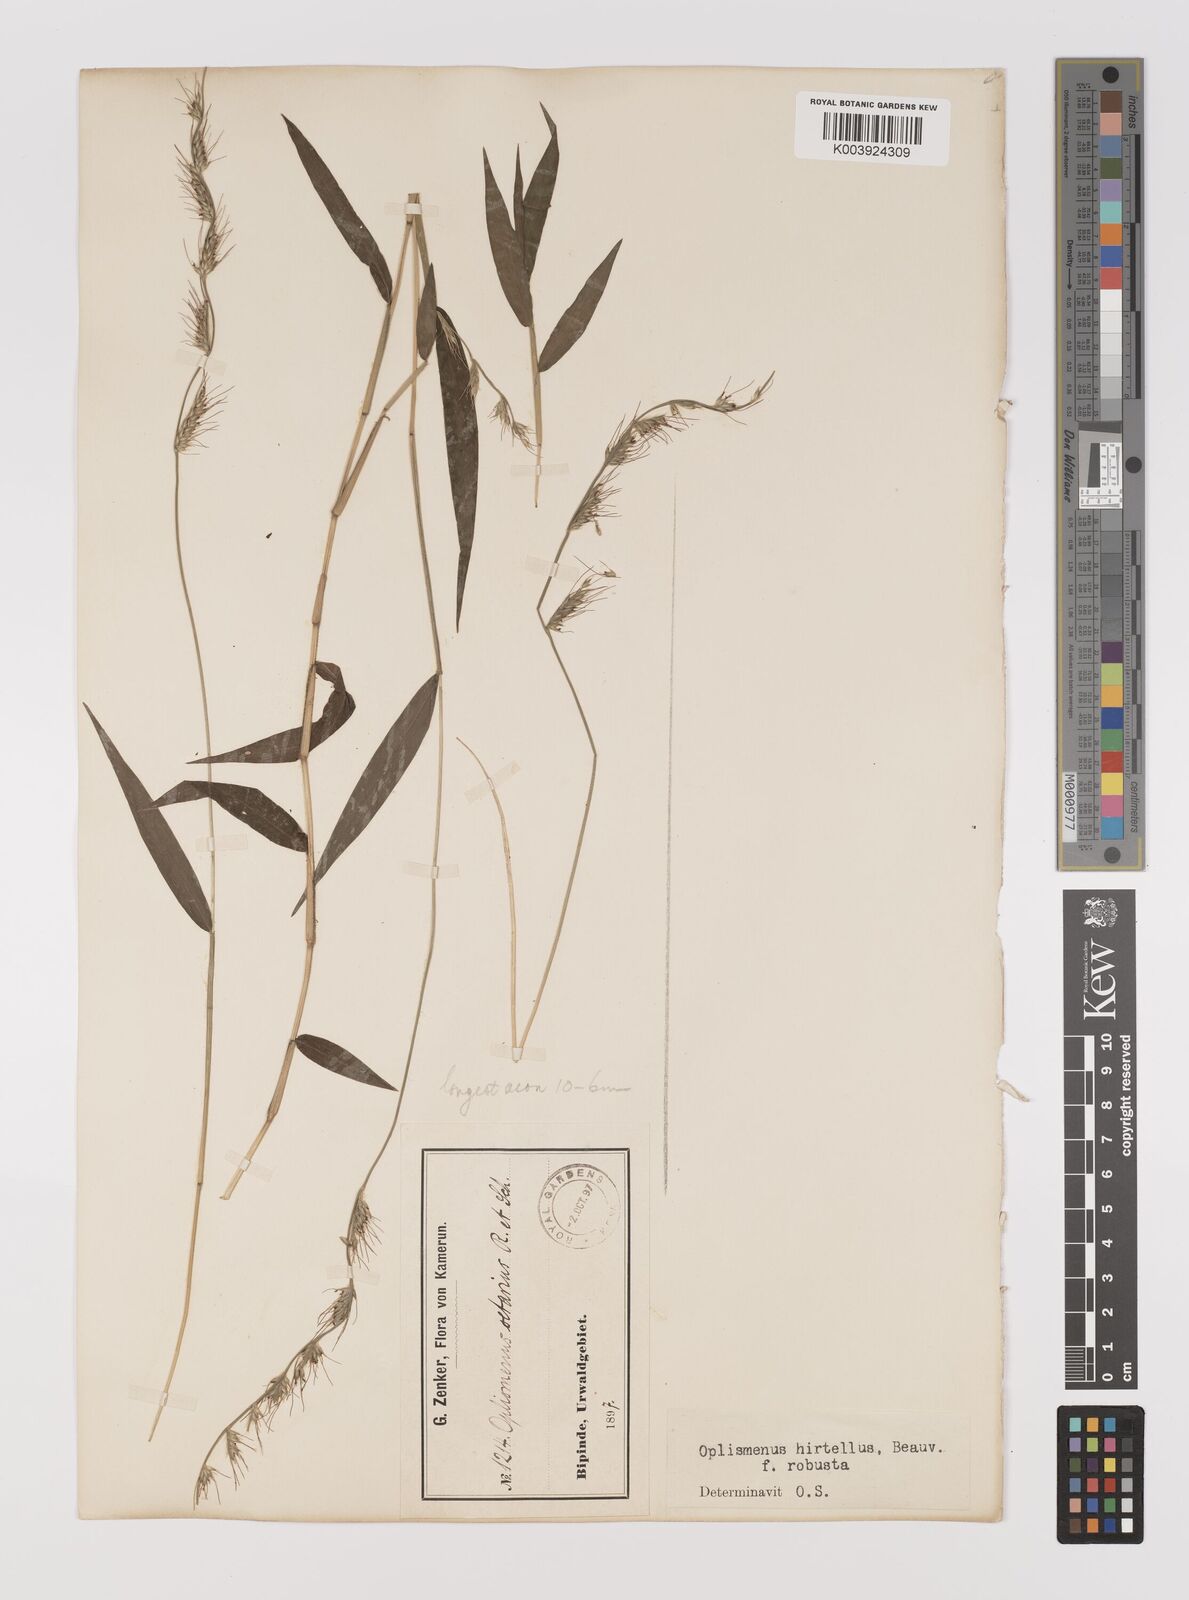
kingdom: Plantae
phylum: Tracheophyta
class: Liliopsida
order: Poales
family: Poaceae
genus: Oplismenus
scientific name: Oplismenus hirtellus
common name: Basketgrass
